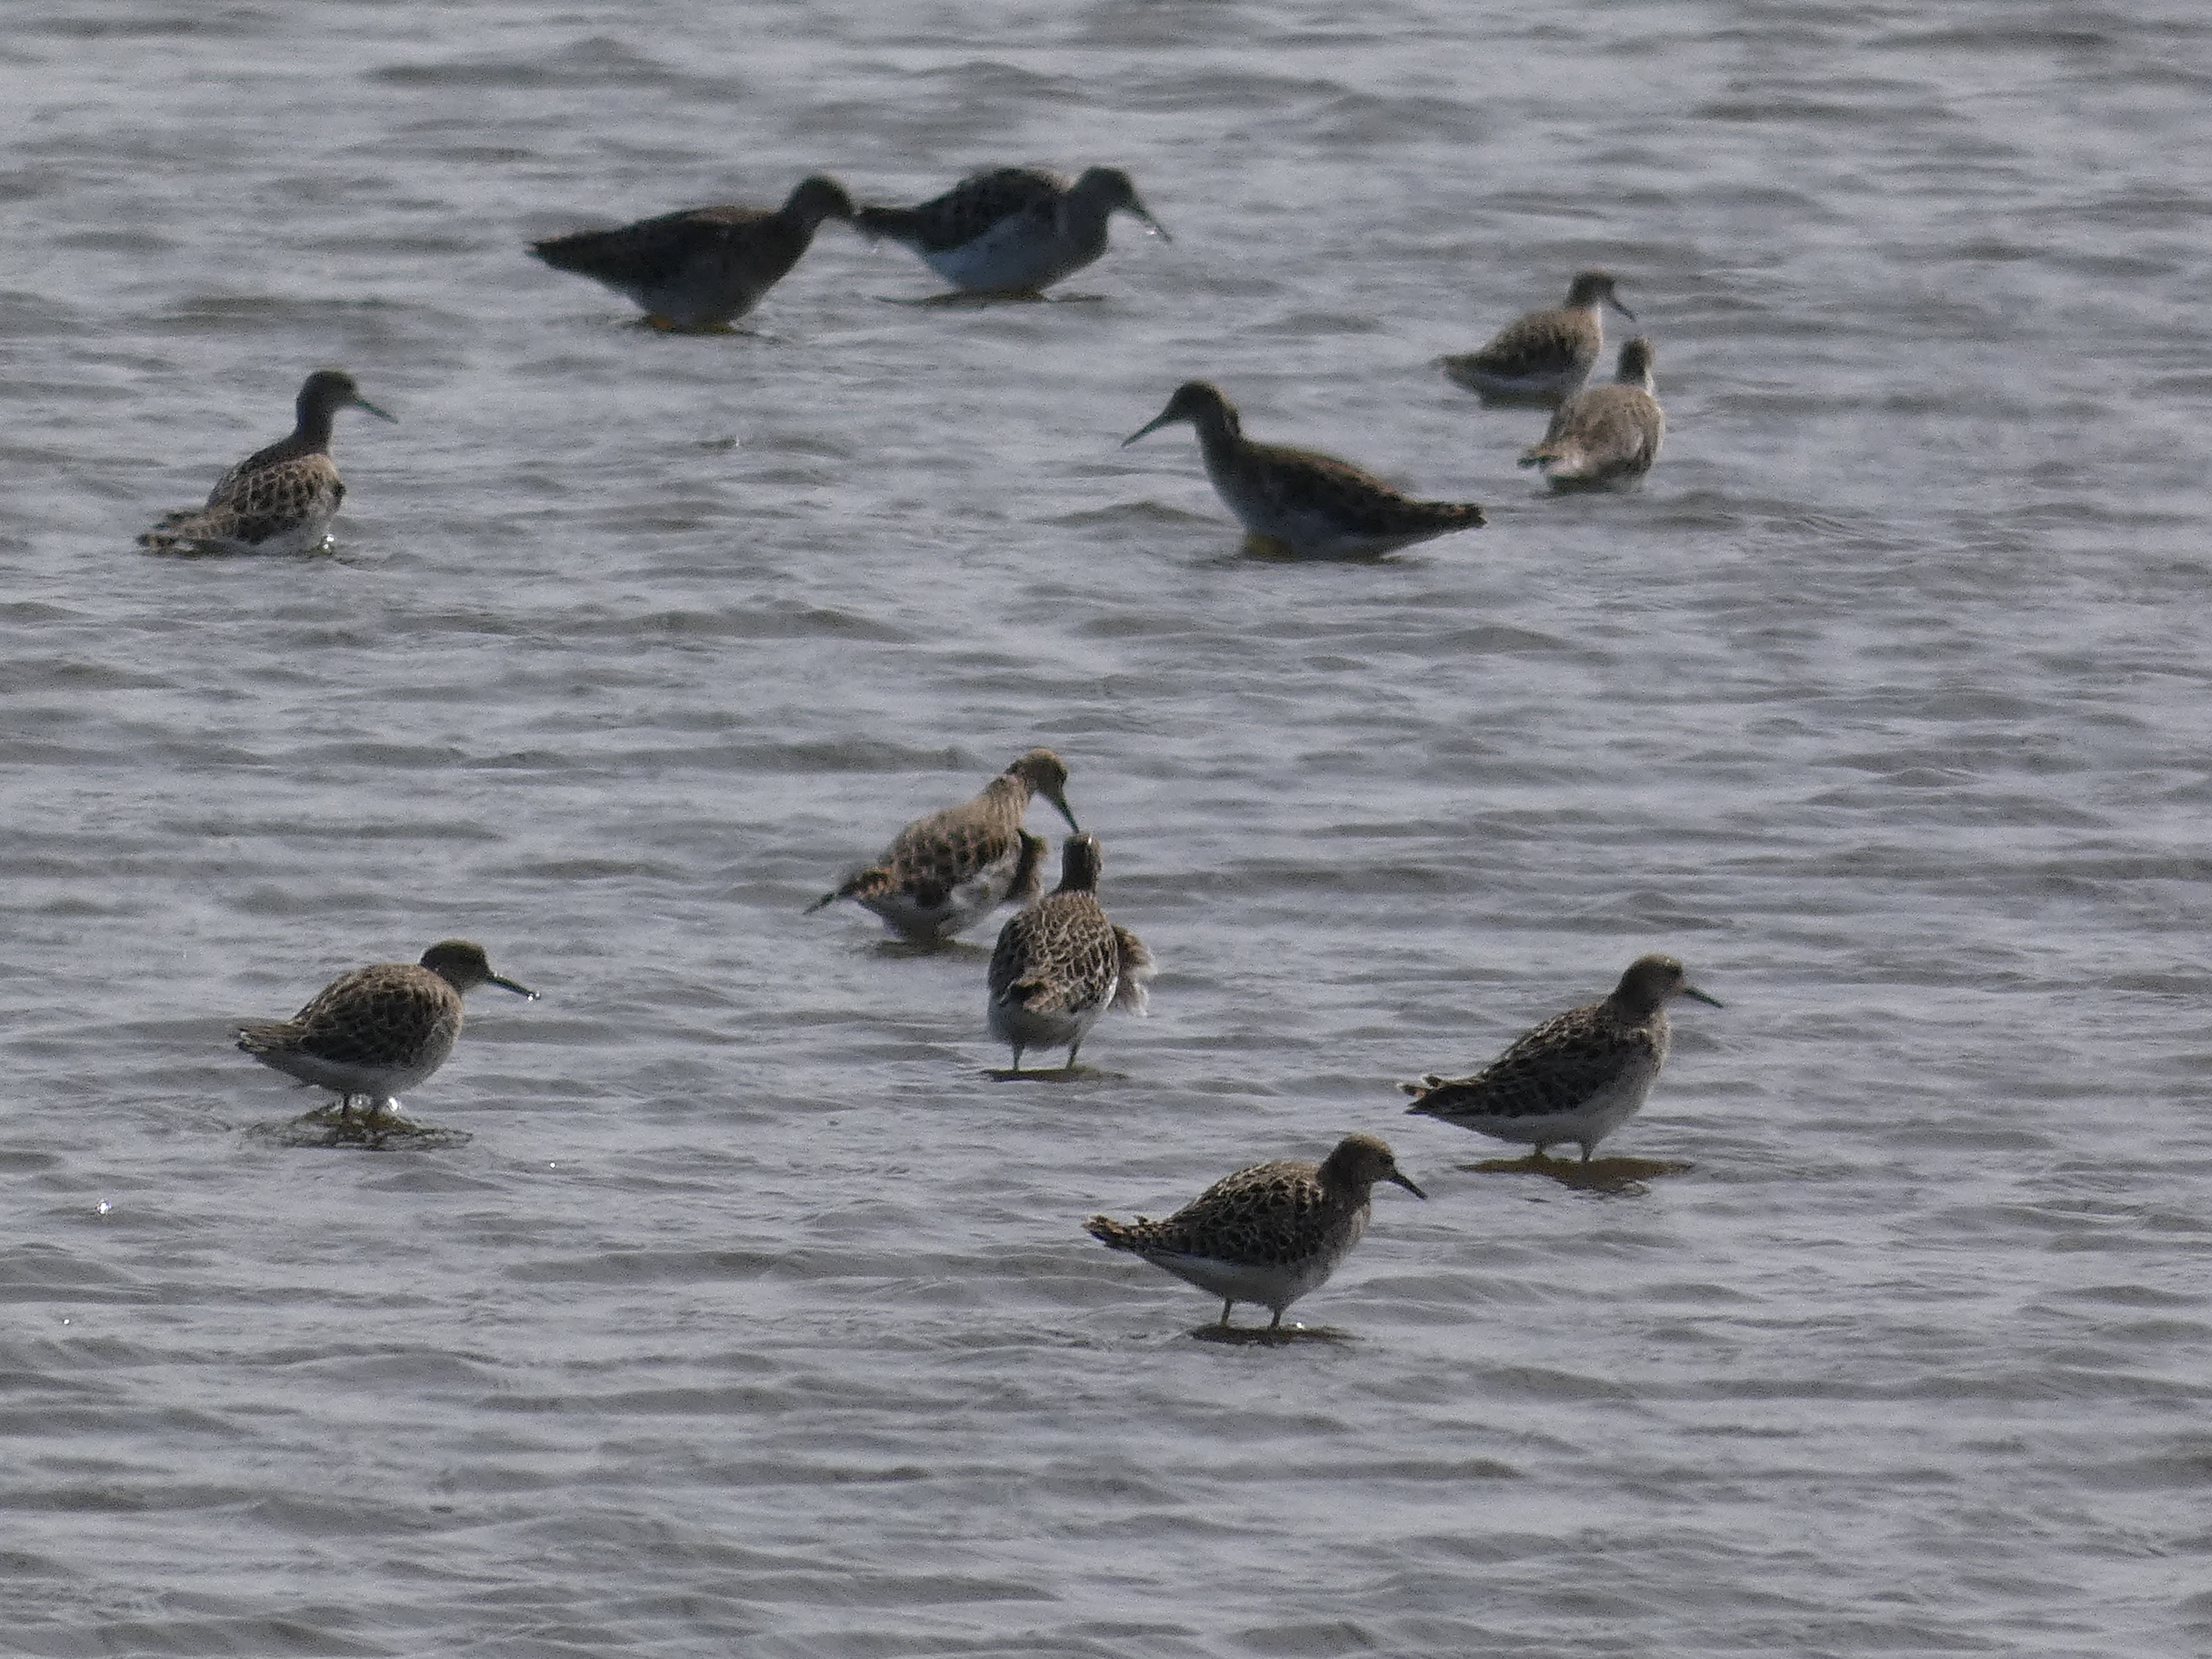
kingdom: Animalia
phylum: Chordata
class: Aves
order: Charadriiformes
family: Scolopacidae
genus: Calidris
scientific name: Calidris pugnax
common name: Brushane
